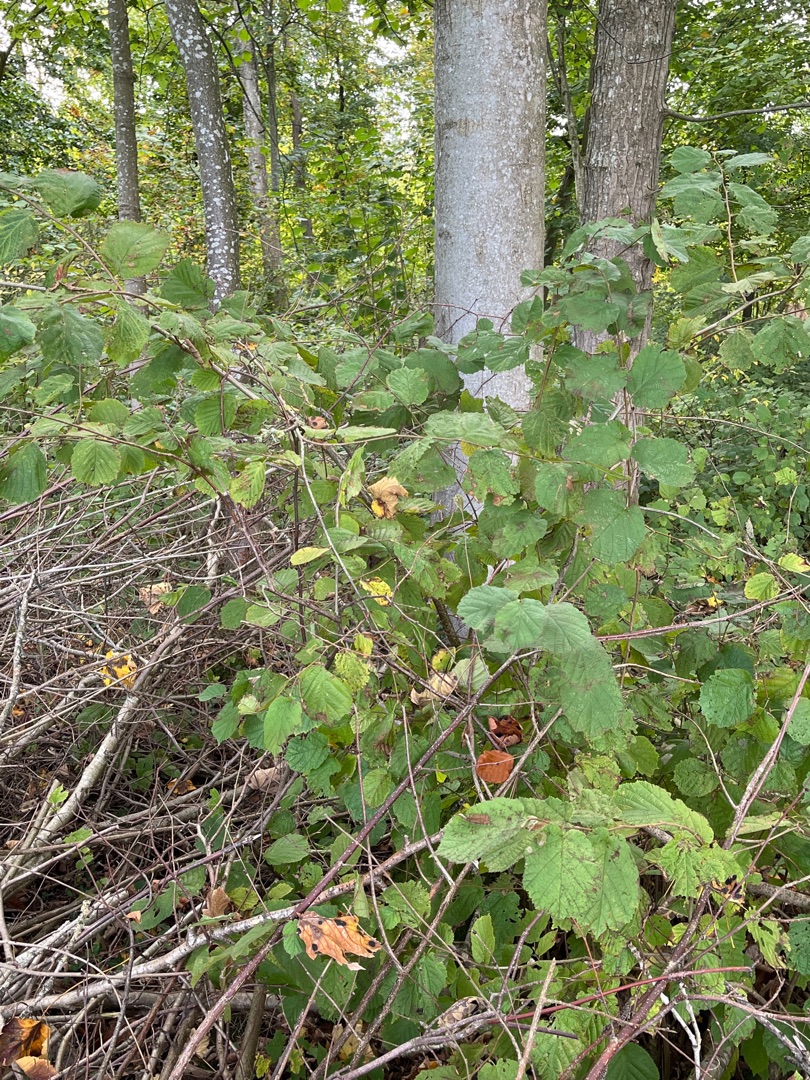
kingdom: Plantae
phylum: Tracheophyta
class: Magnoliopsida
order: Fagales
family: Betulaceae
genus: Corylus
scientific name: Corylus avellana
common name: Hassel
